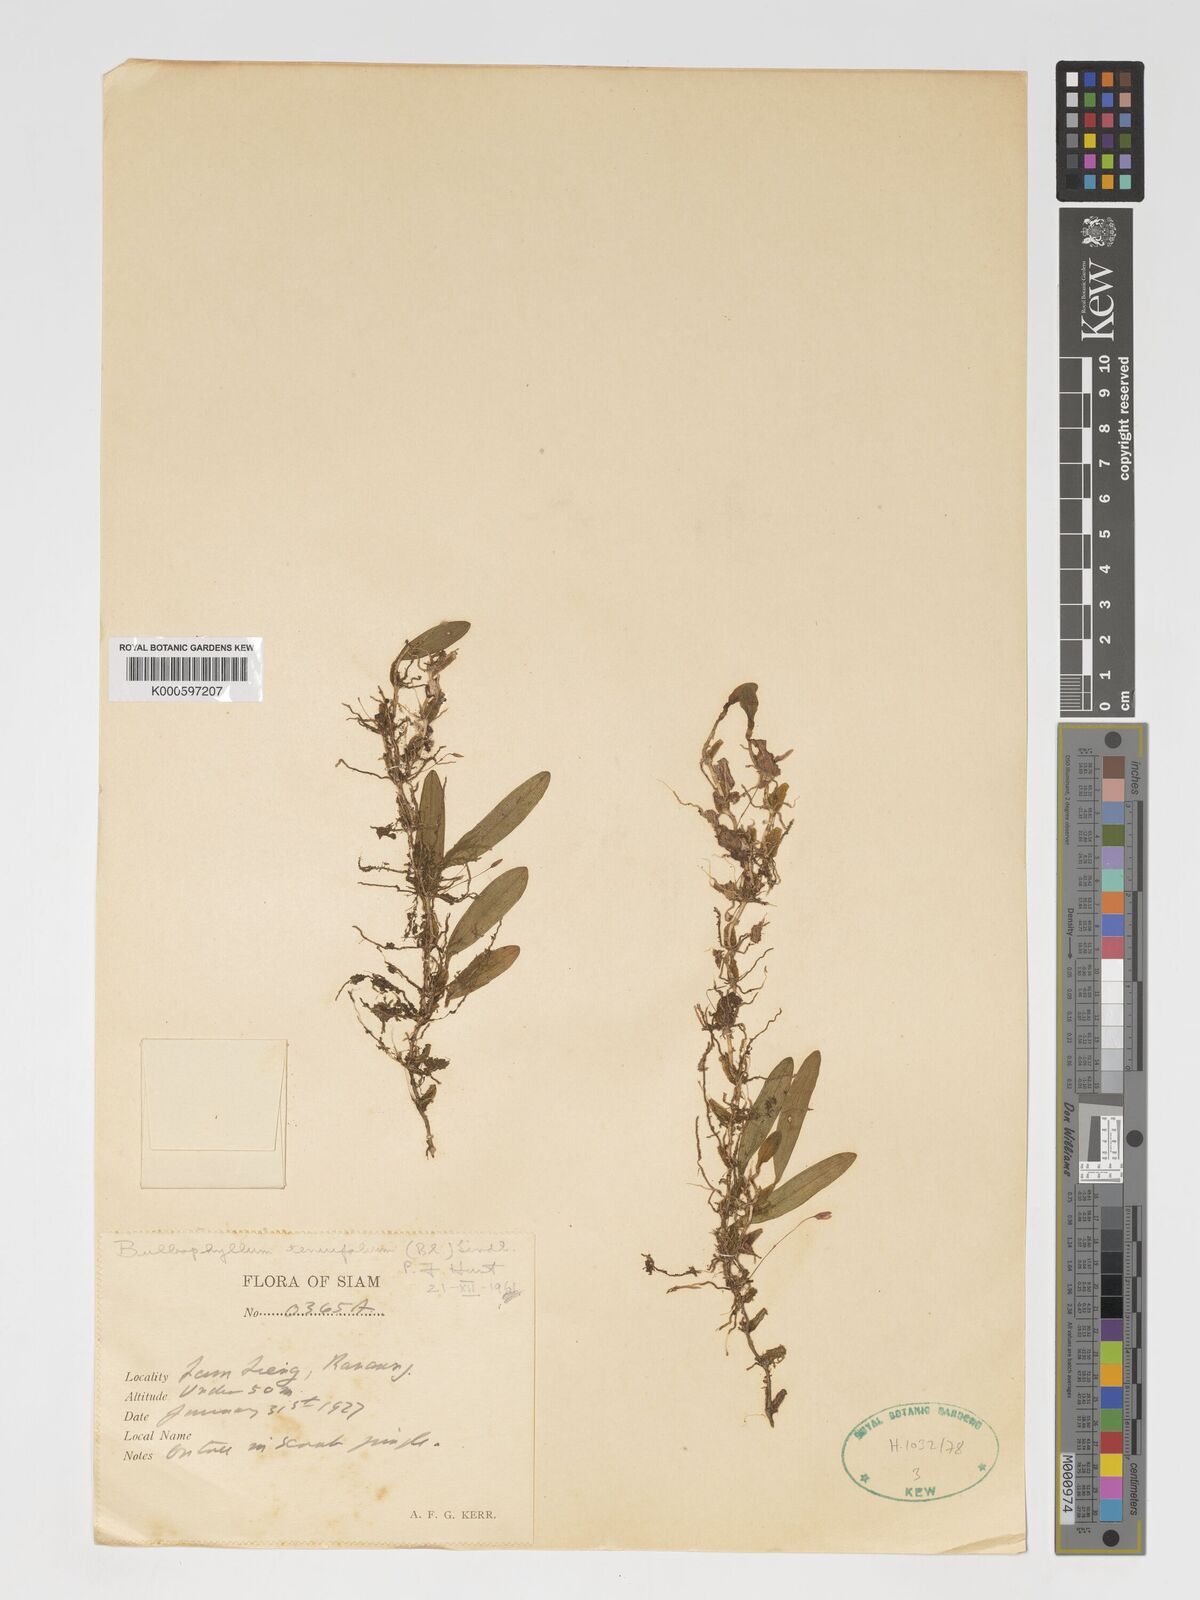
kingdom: Plantae
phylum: Tracheophyta
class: Liliopsida
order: Asparagales
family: Orchidaceae
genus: Bulbophyllum
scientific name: Bulbophyllum tenuifolium
